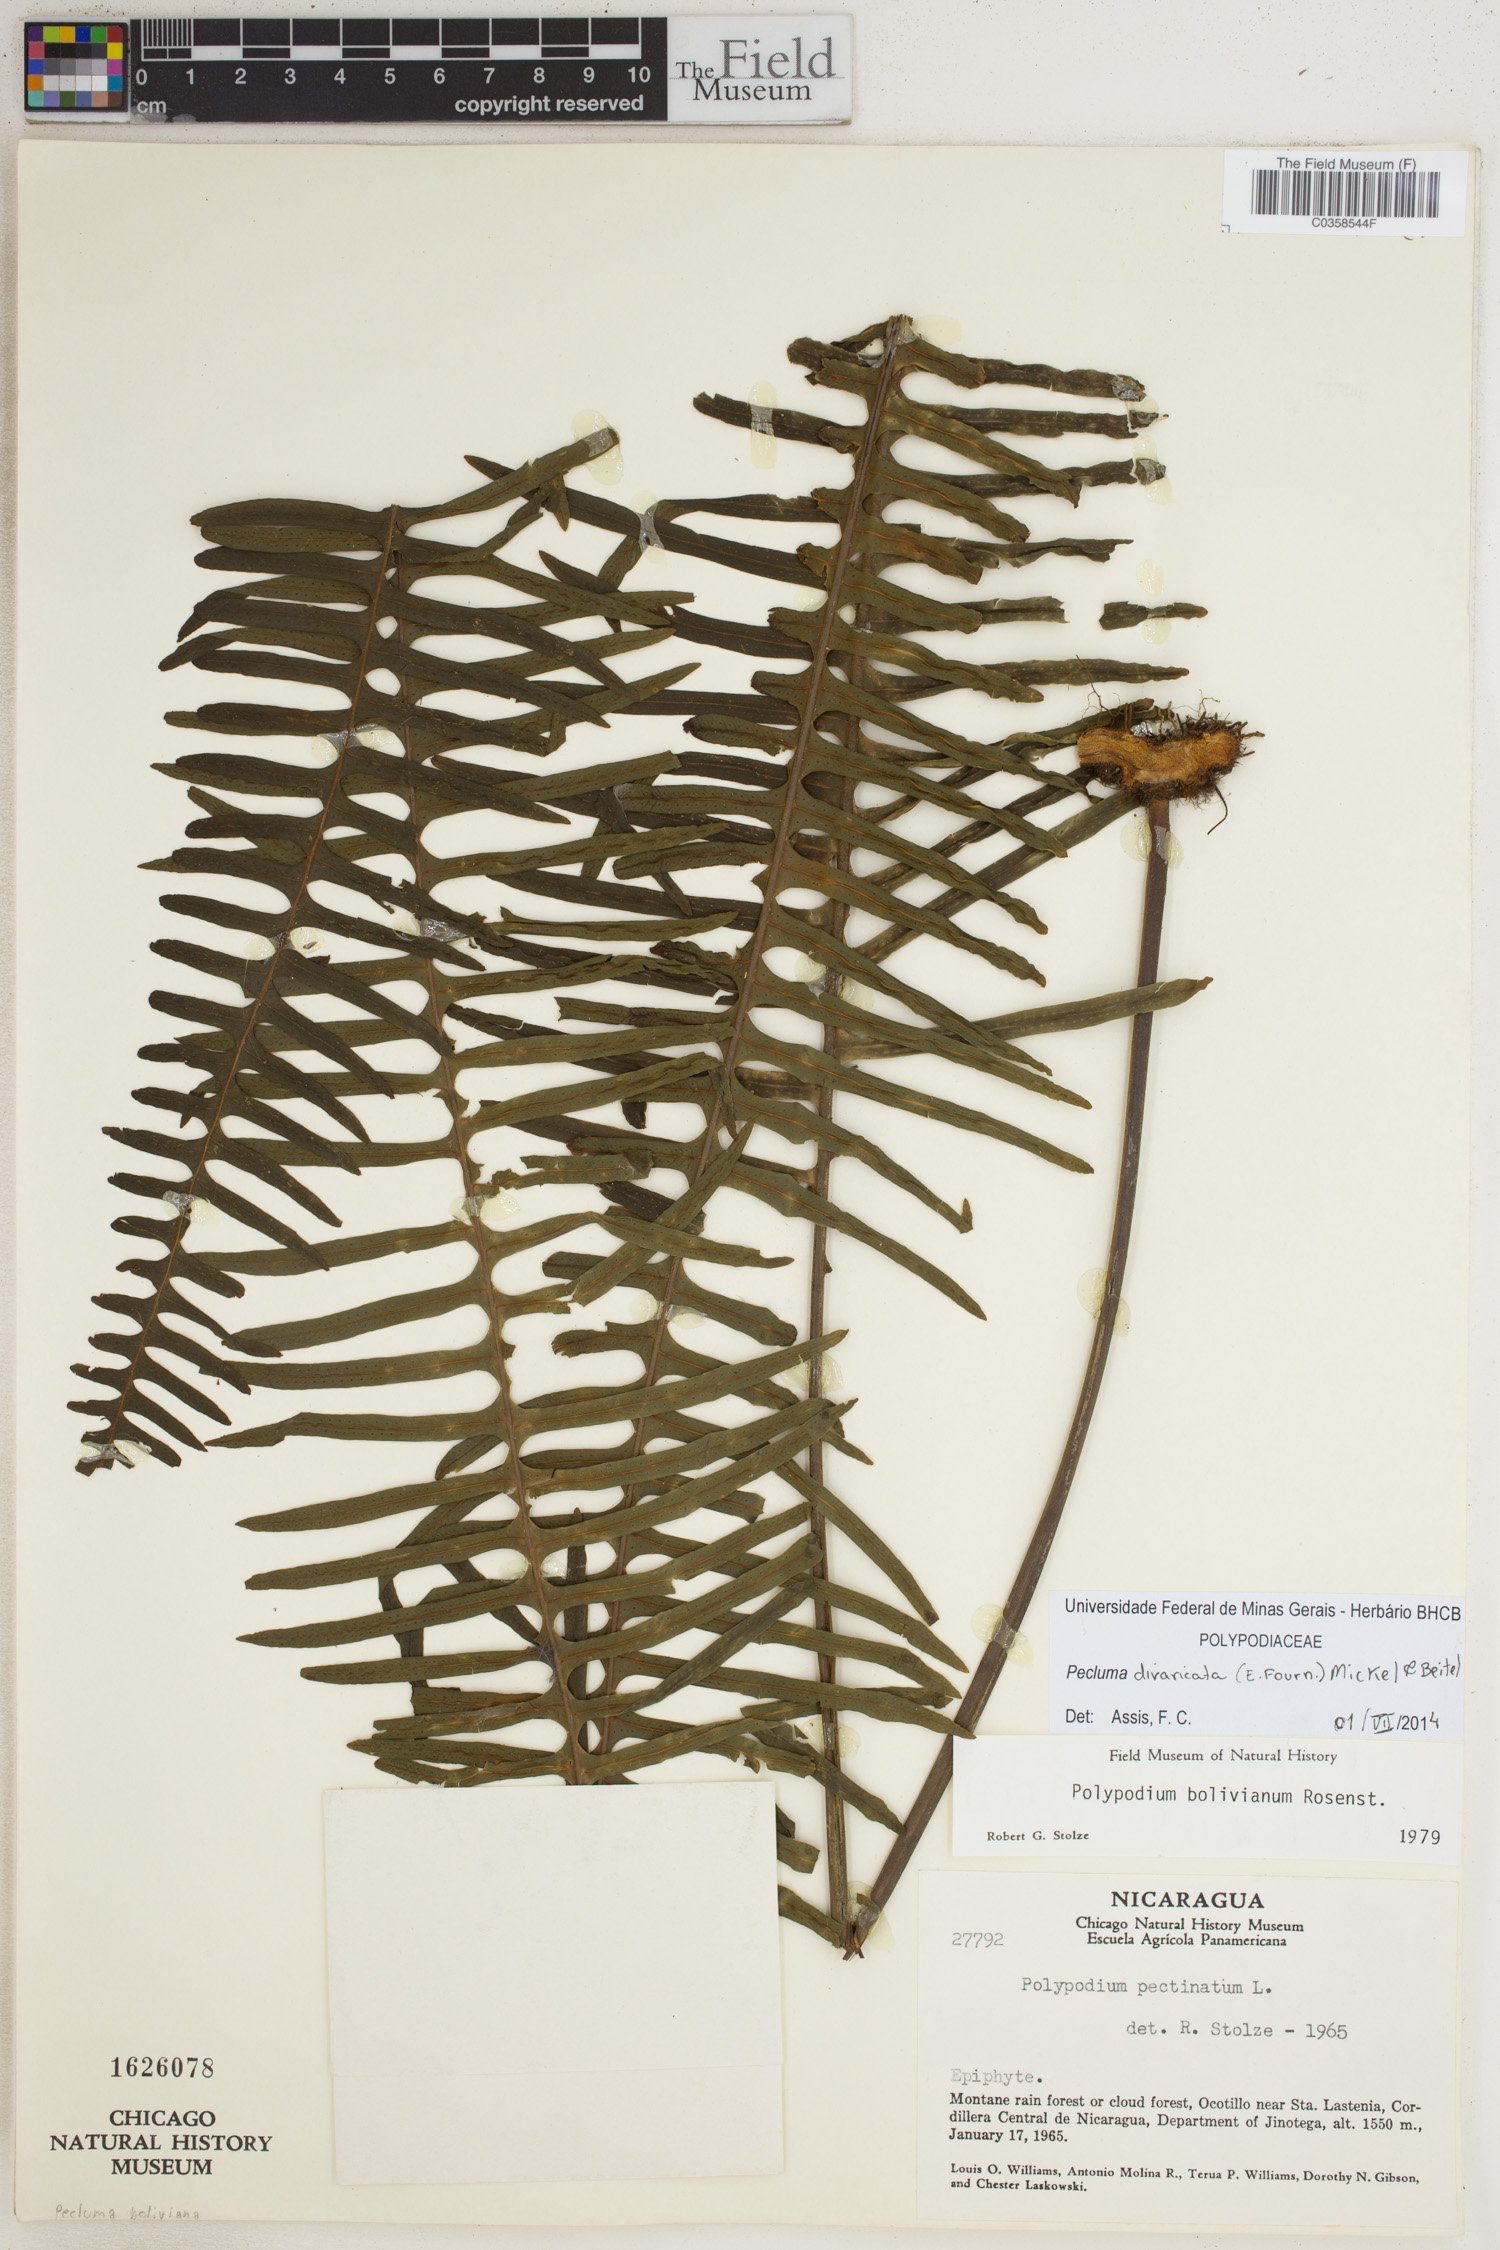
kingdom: Plantae
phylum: Tracheophyta
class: Polypodiopsida
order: Polypodiales
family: Polypodiaceae
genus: Pecluma
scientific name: Pecluma divaricata
